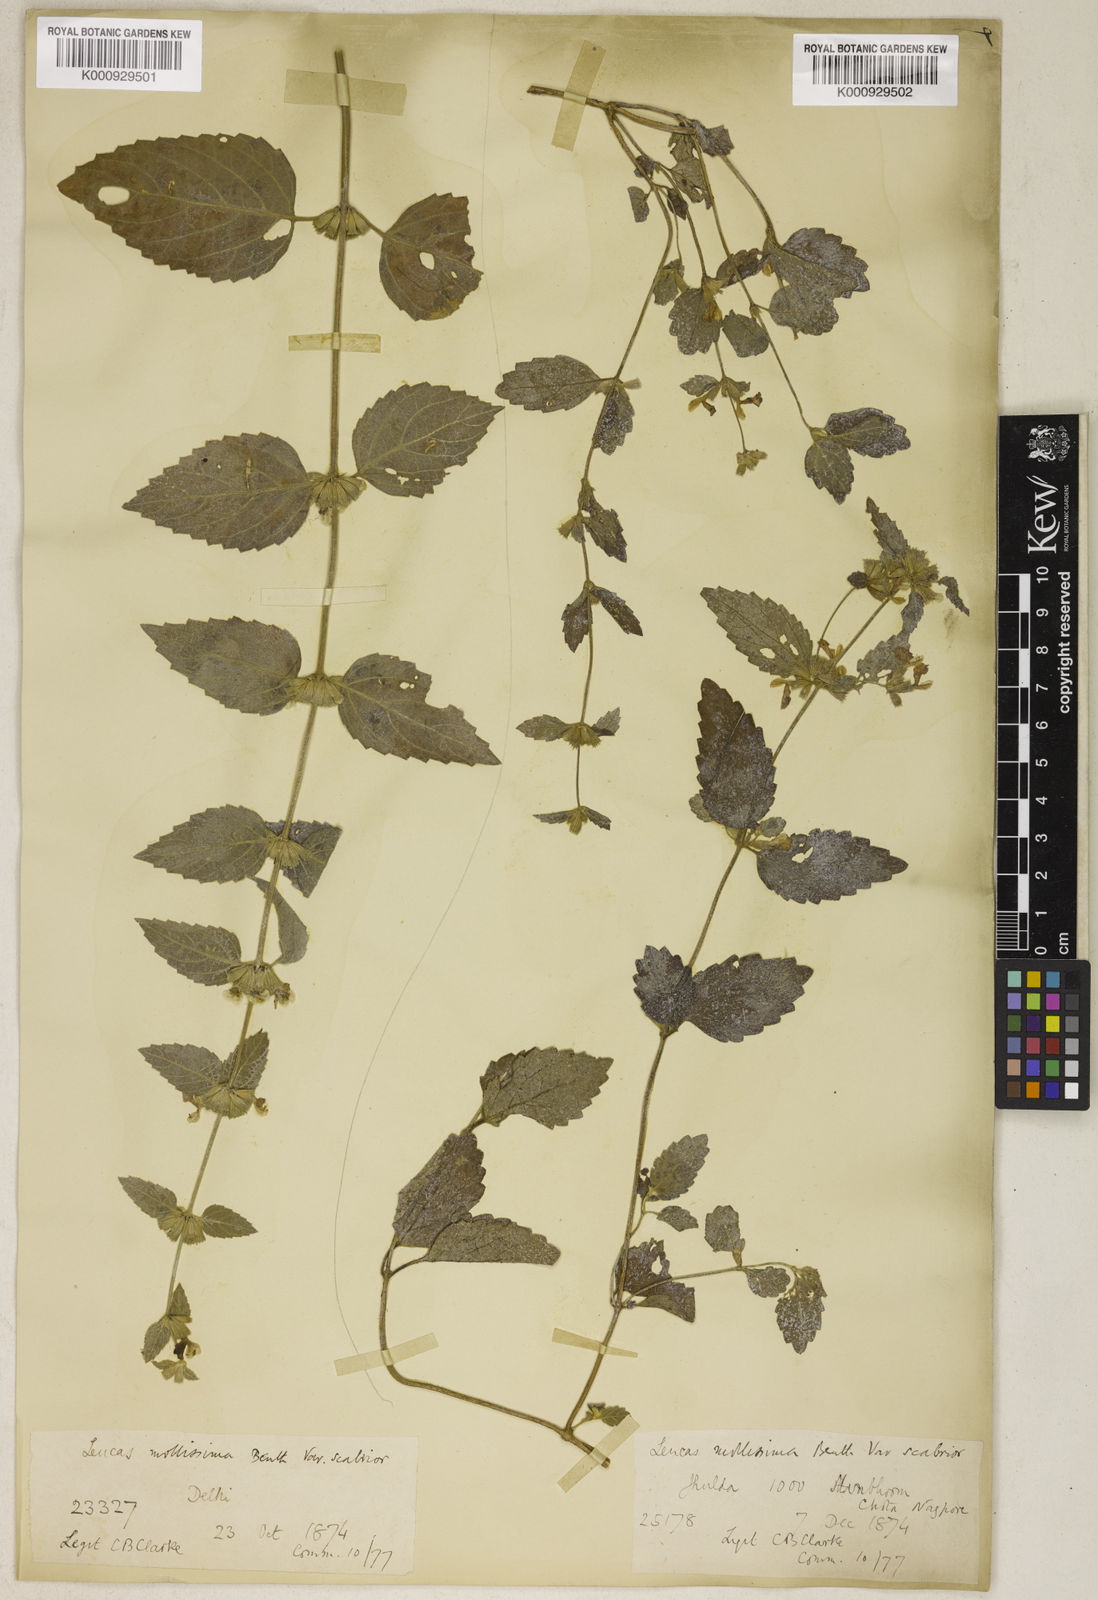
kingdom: Plantae
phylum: Tracheophyta
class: Magnoliopsida
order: Lamiales
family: Lamiaceae
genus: Leucas
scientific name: Leucas mollissima
